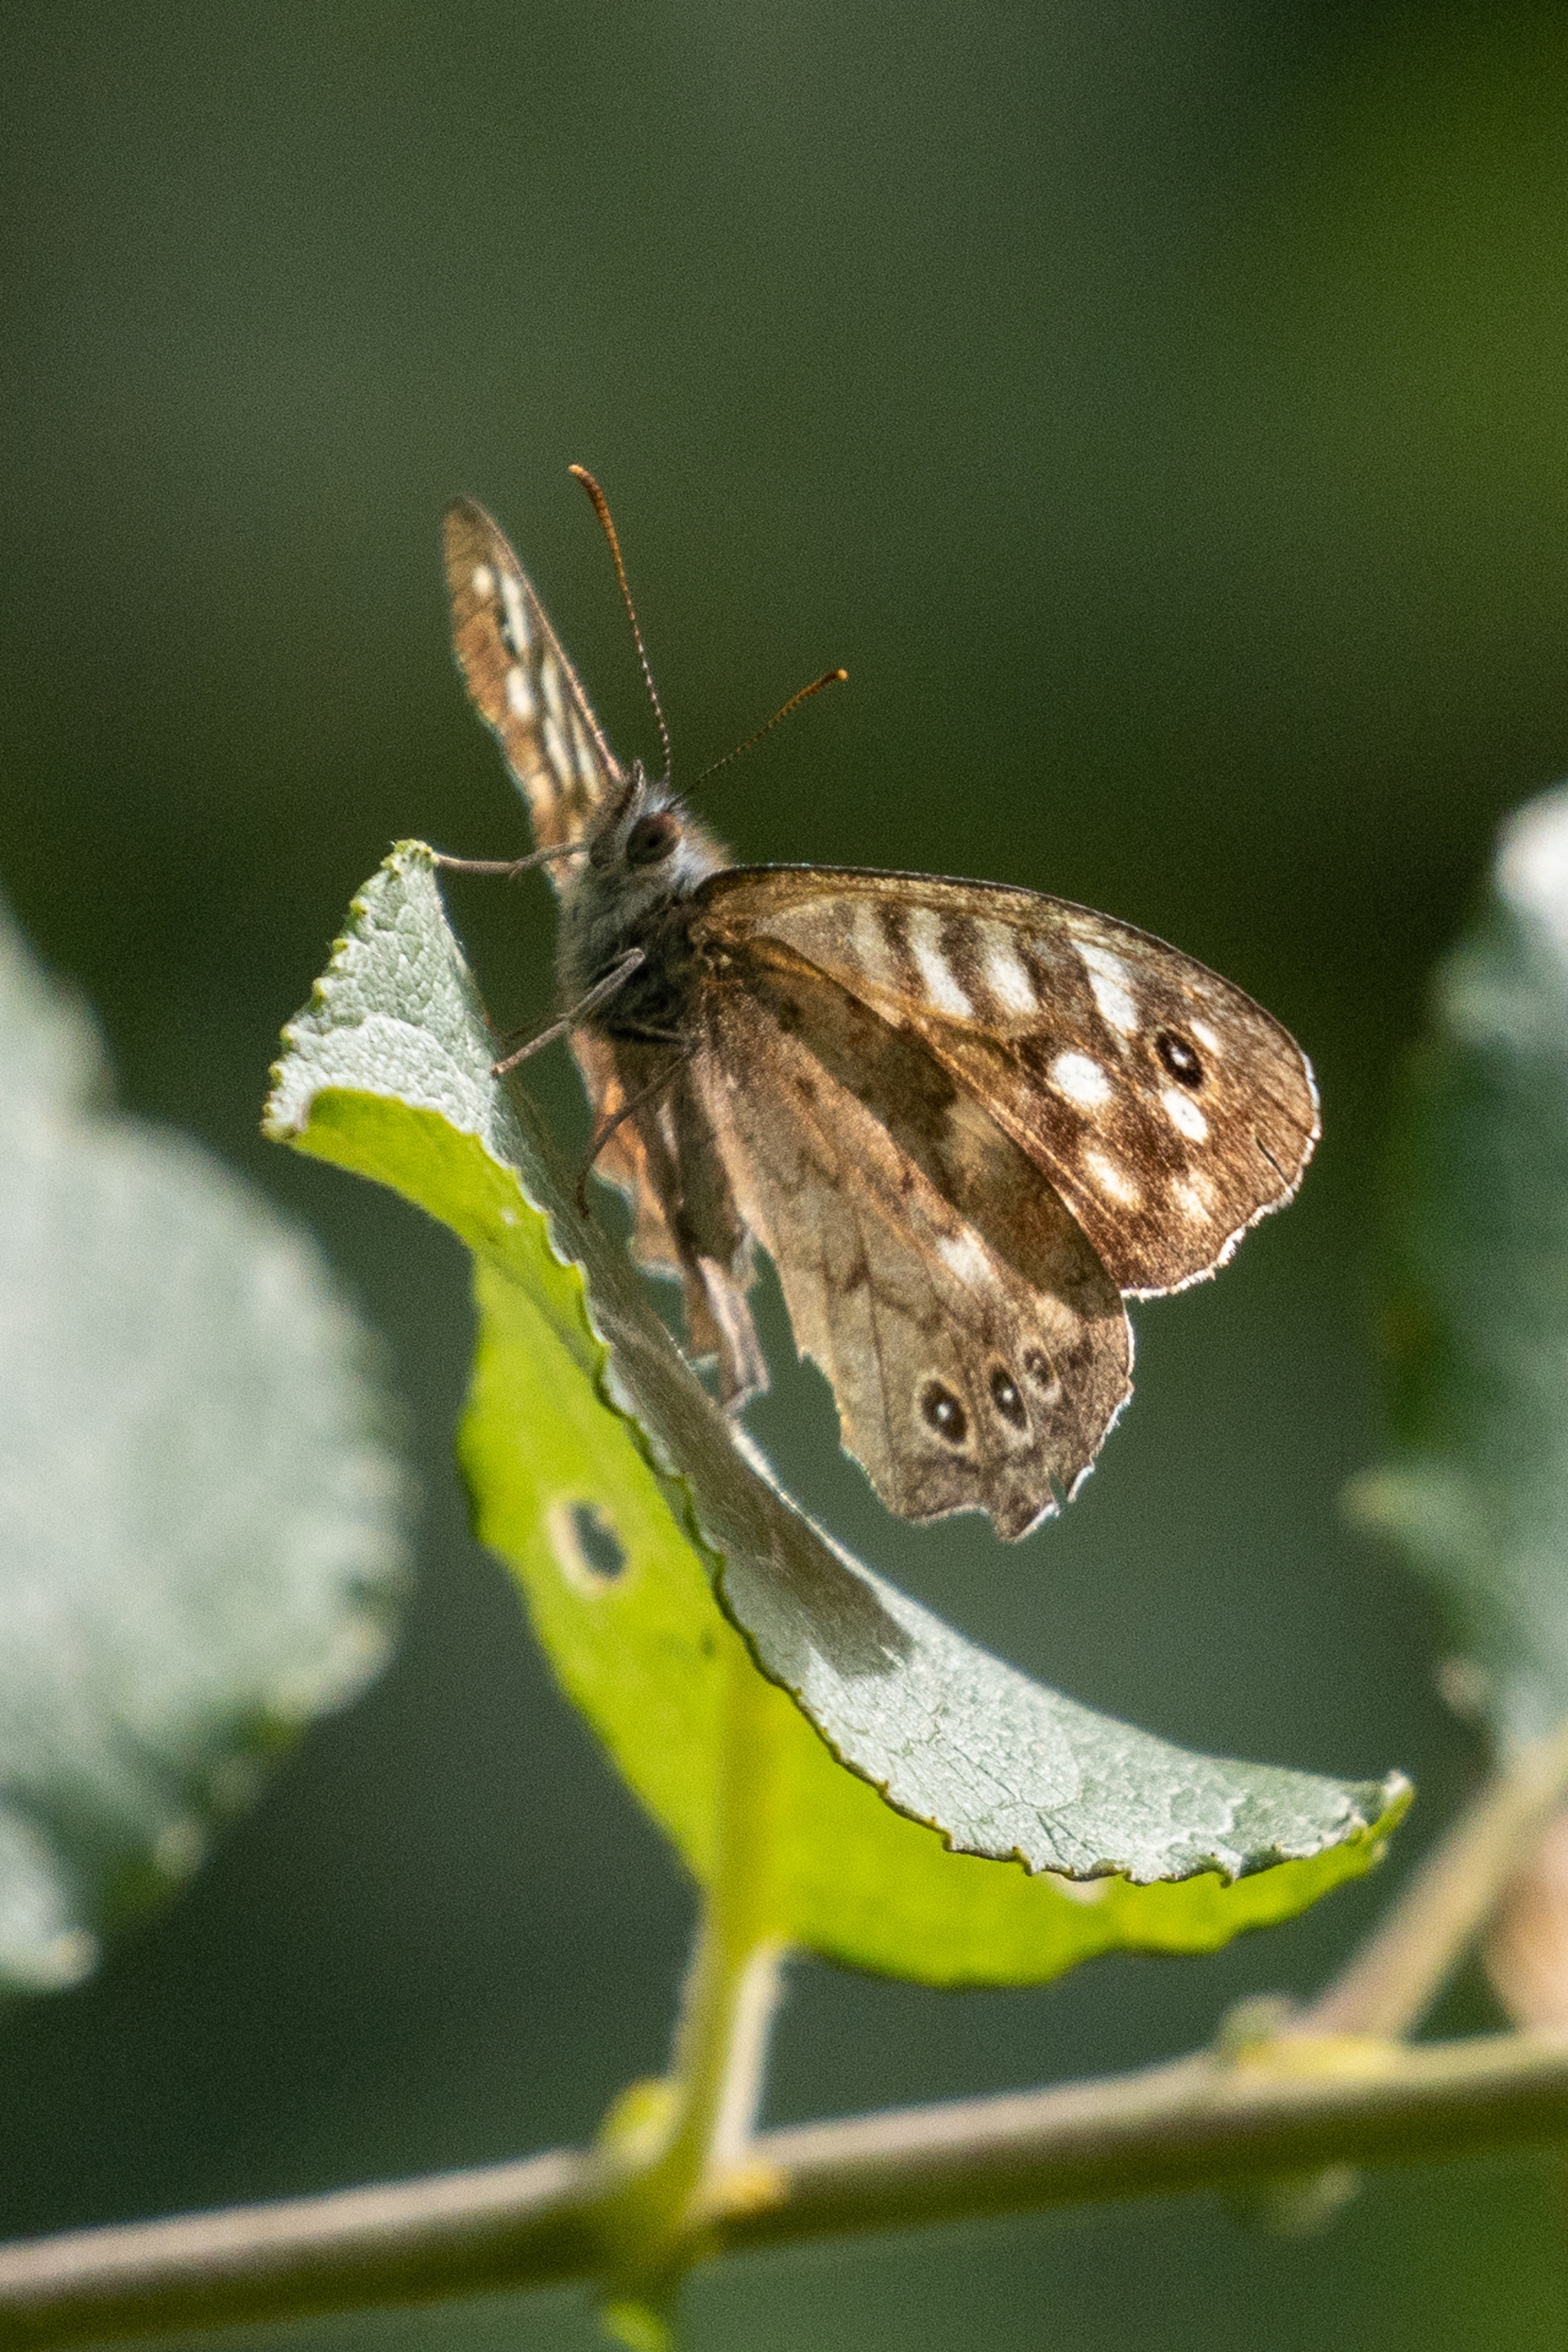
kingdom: Animalia
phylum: Arthropoda
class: Insecta
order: Lepidoptera
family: Nymphalidae
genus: Pararge
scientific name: Pararge aegeria
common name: Skovrandøje
